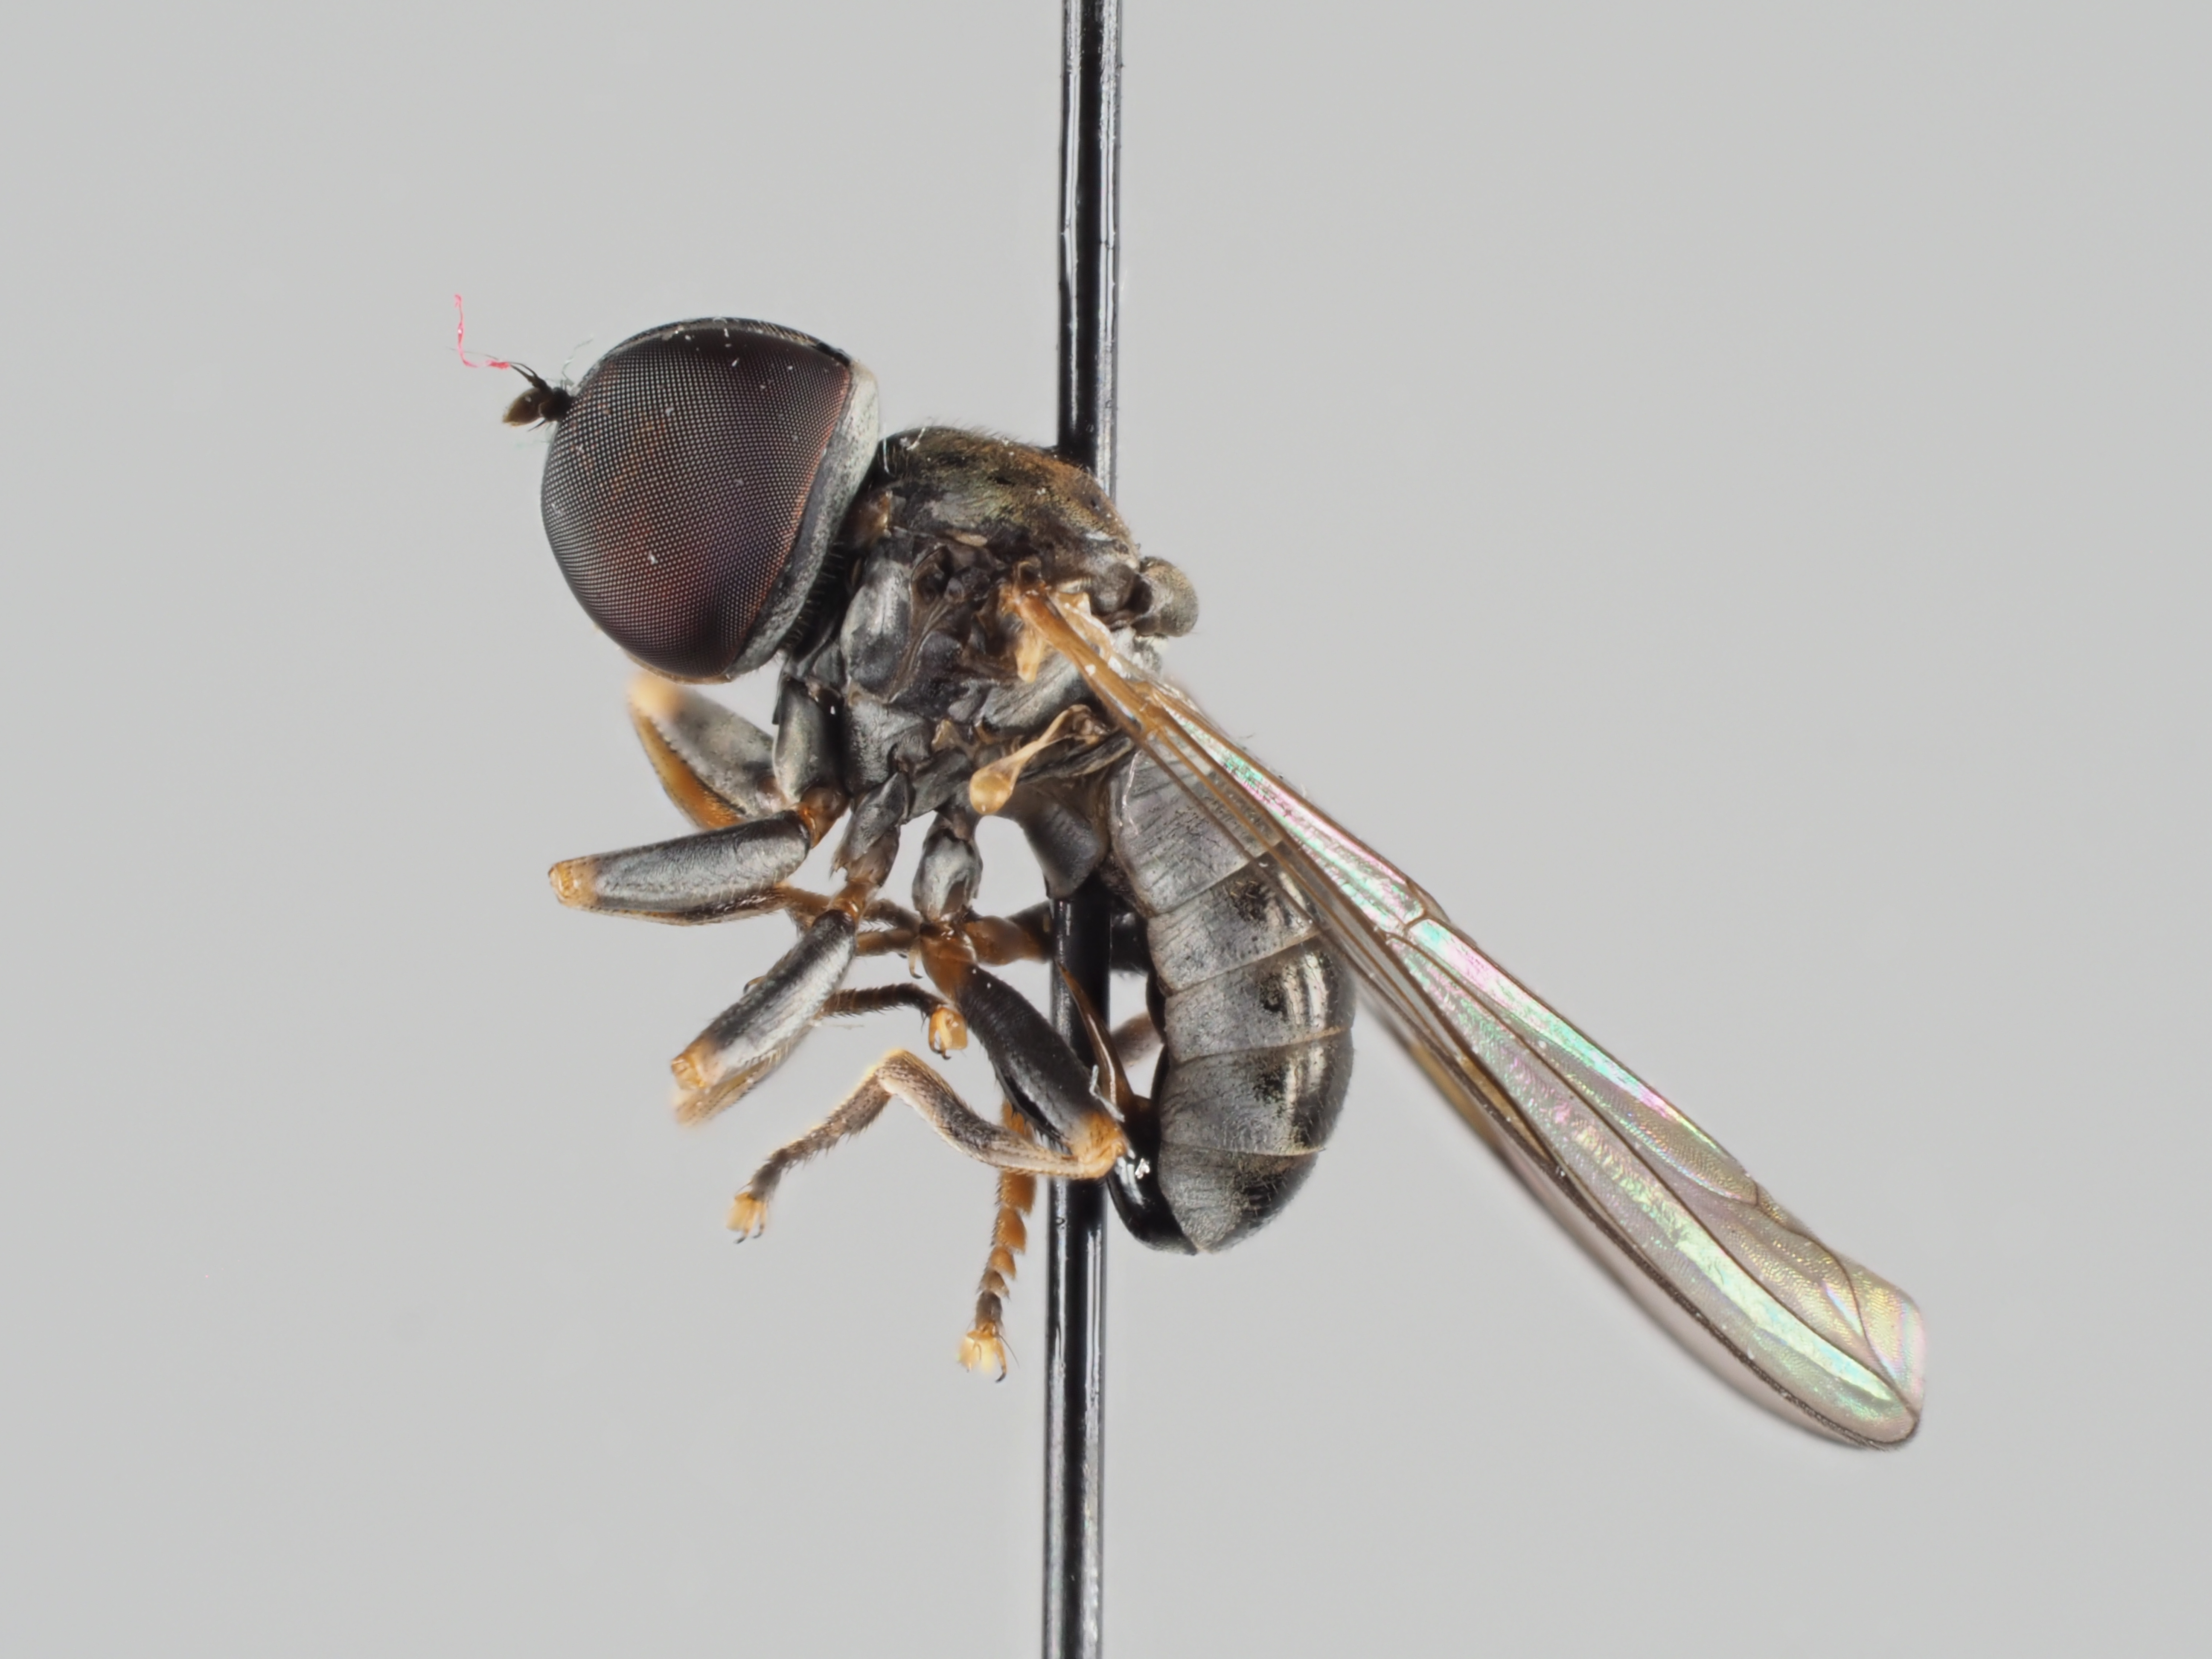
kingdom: Animalia
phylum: Arthropoda
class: Insecta
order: Diptera
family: Pipunculidae
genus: Pipunculus
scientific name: Pipunculus lenis
